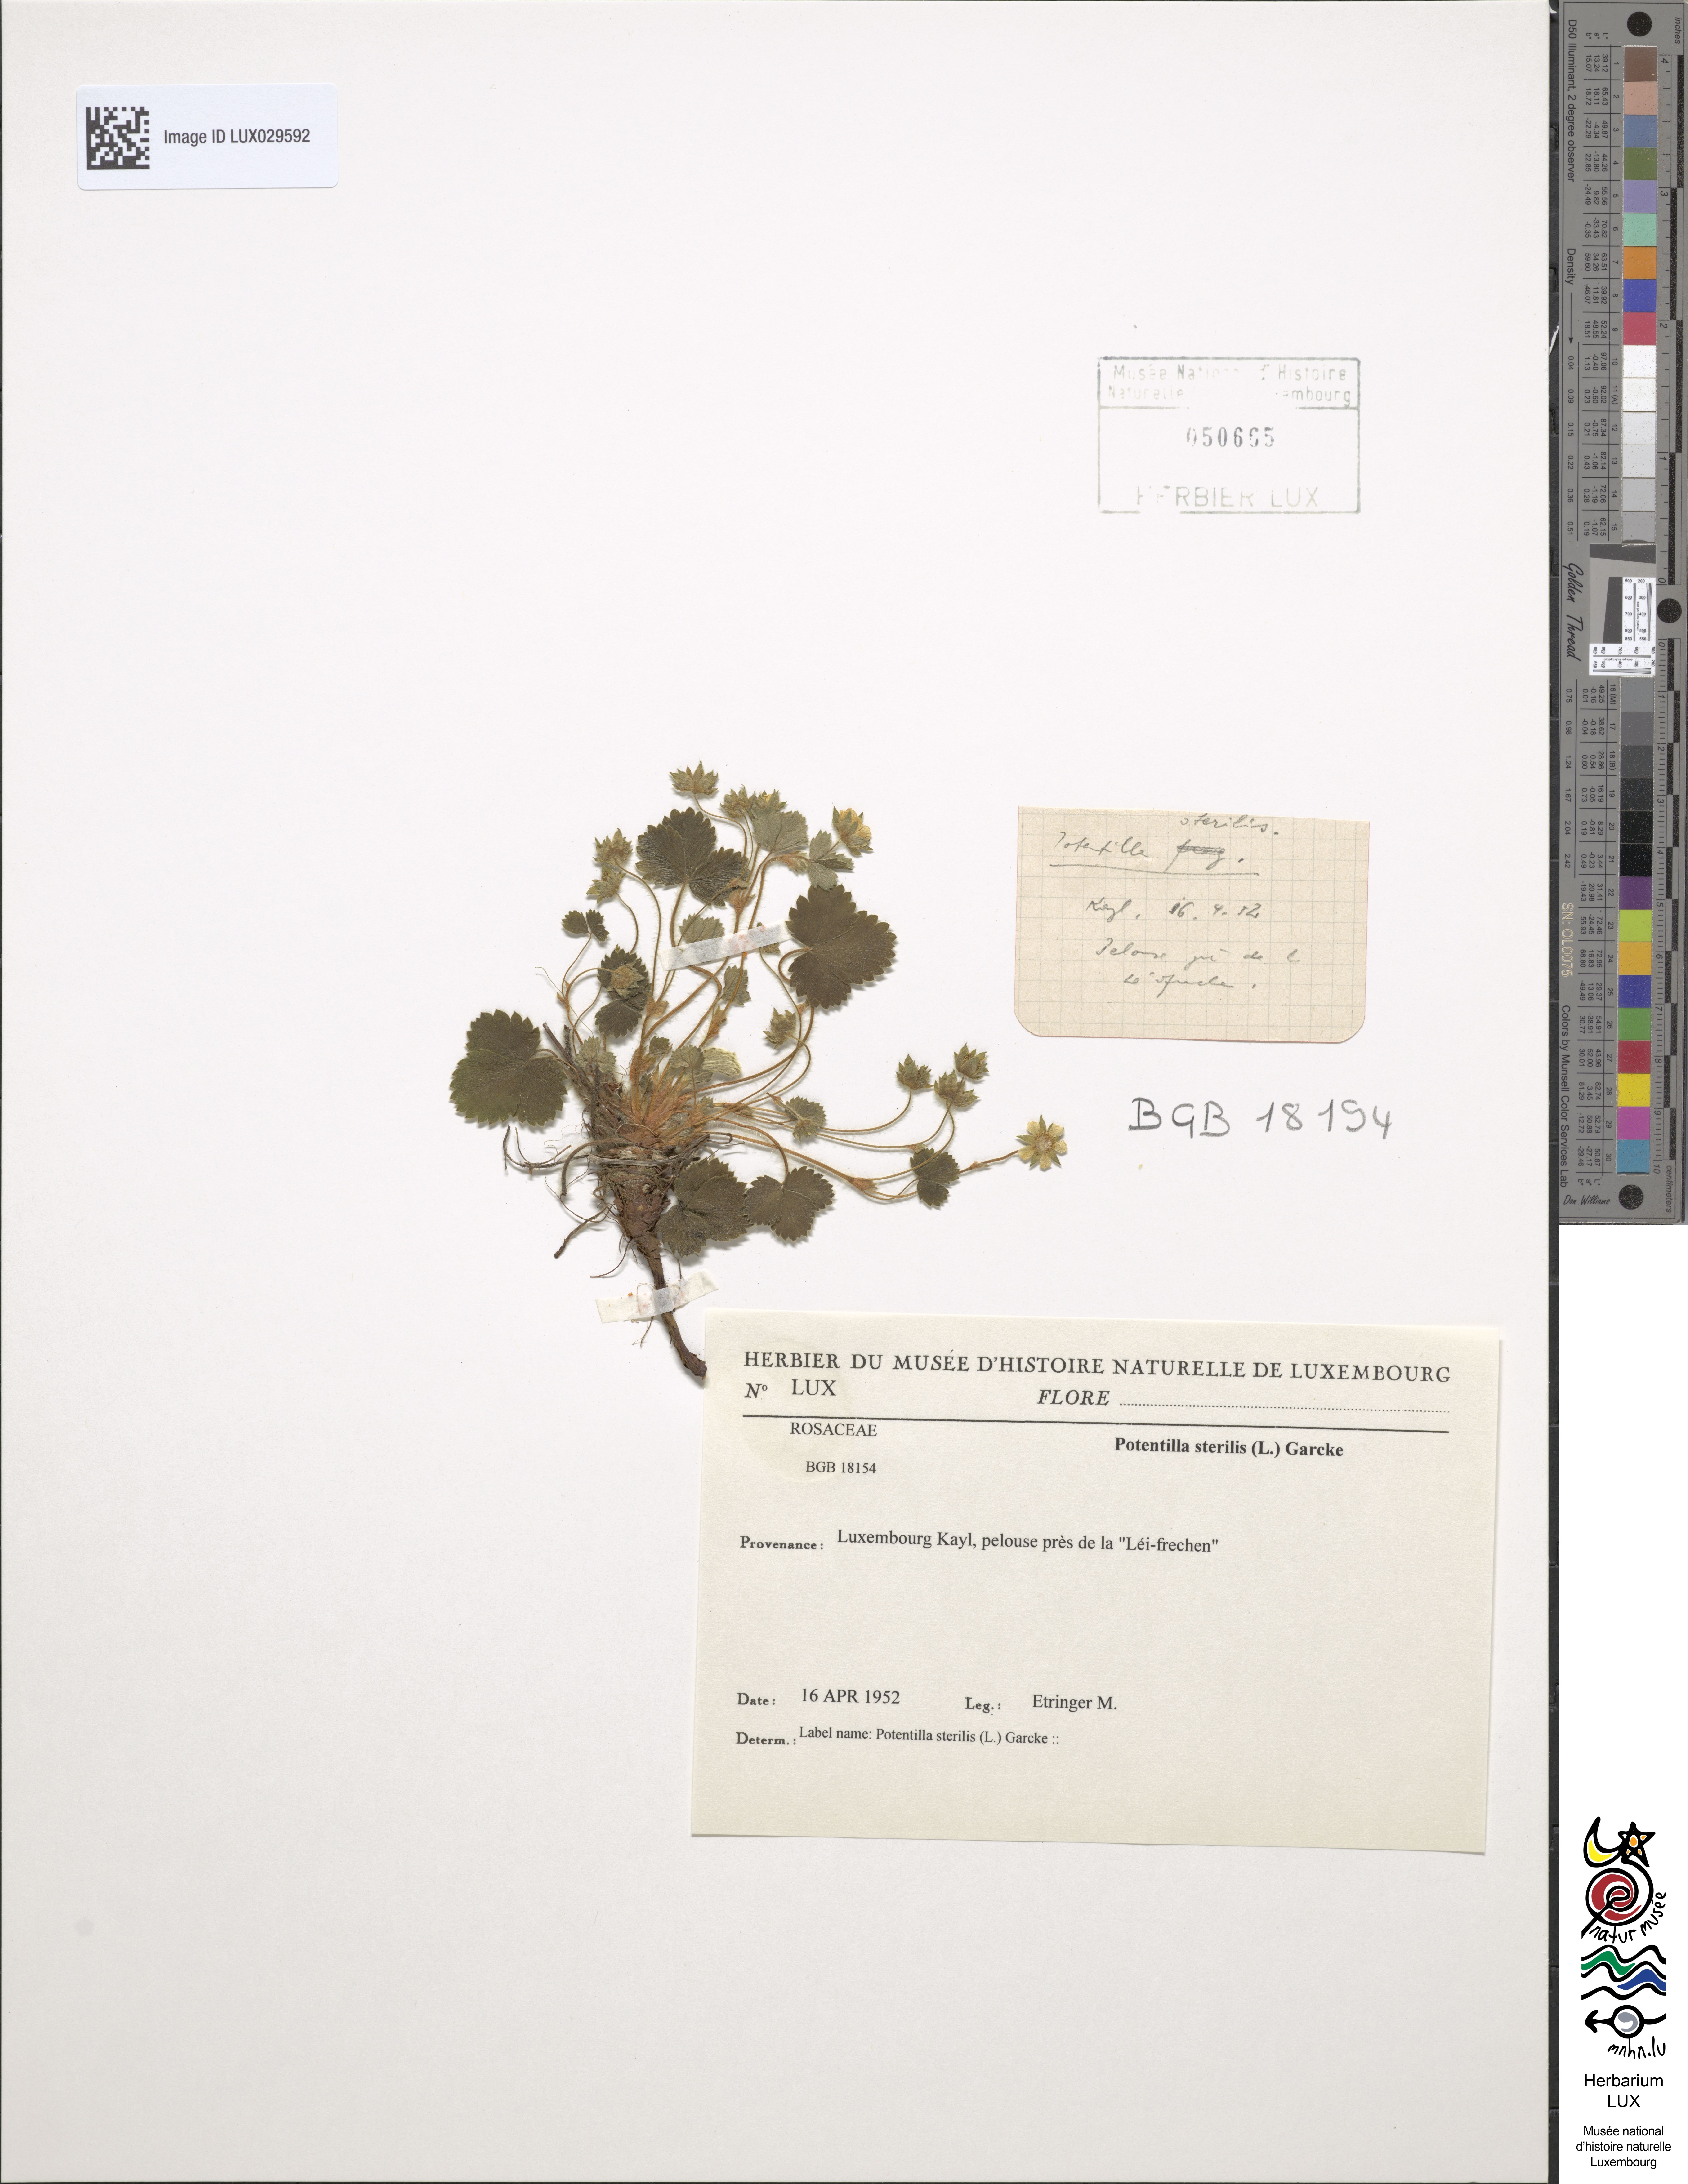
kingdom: Plantae
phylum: Tracheophyta
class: Magnoliopsida
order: Rosales
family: Rosaceae
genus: Potentilla
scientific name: Potentilla sterilis
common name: Barren strawberry
